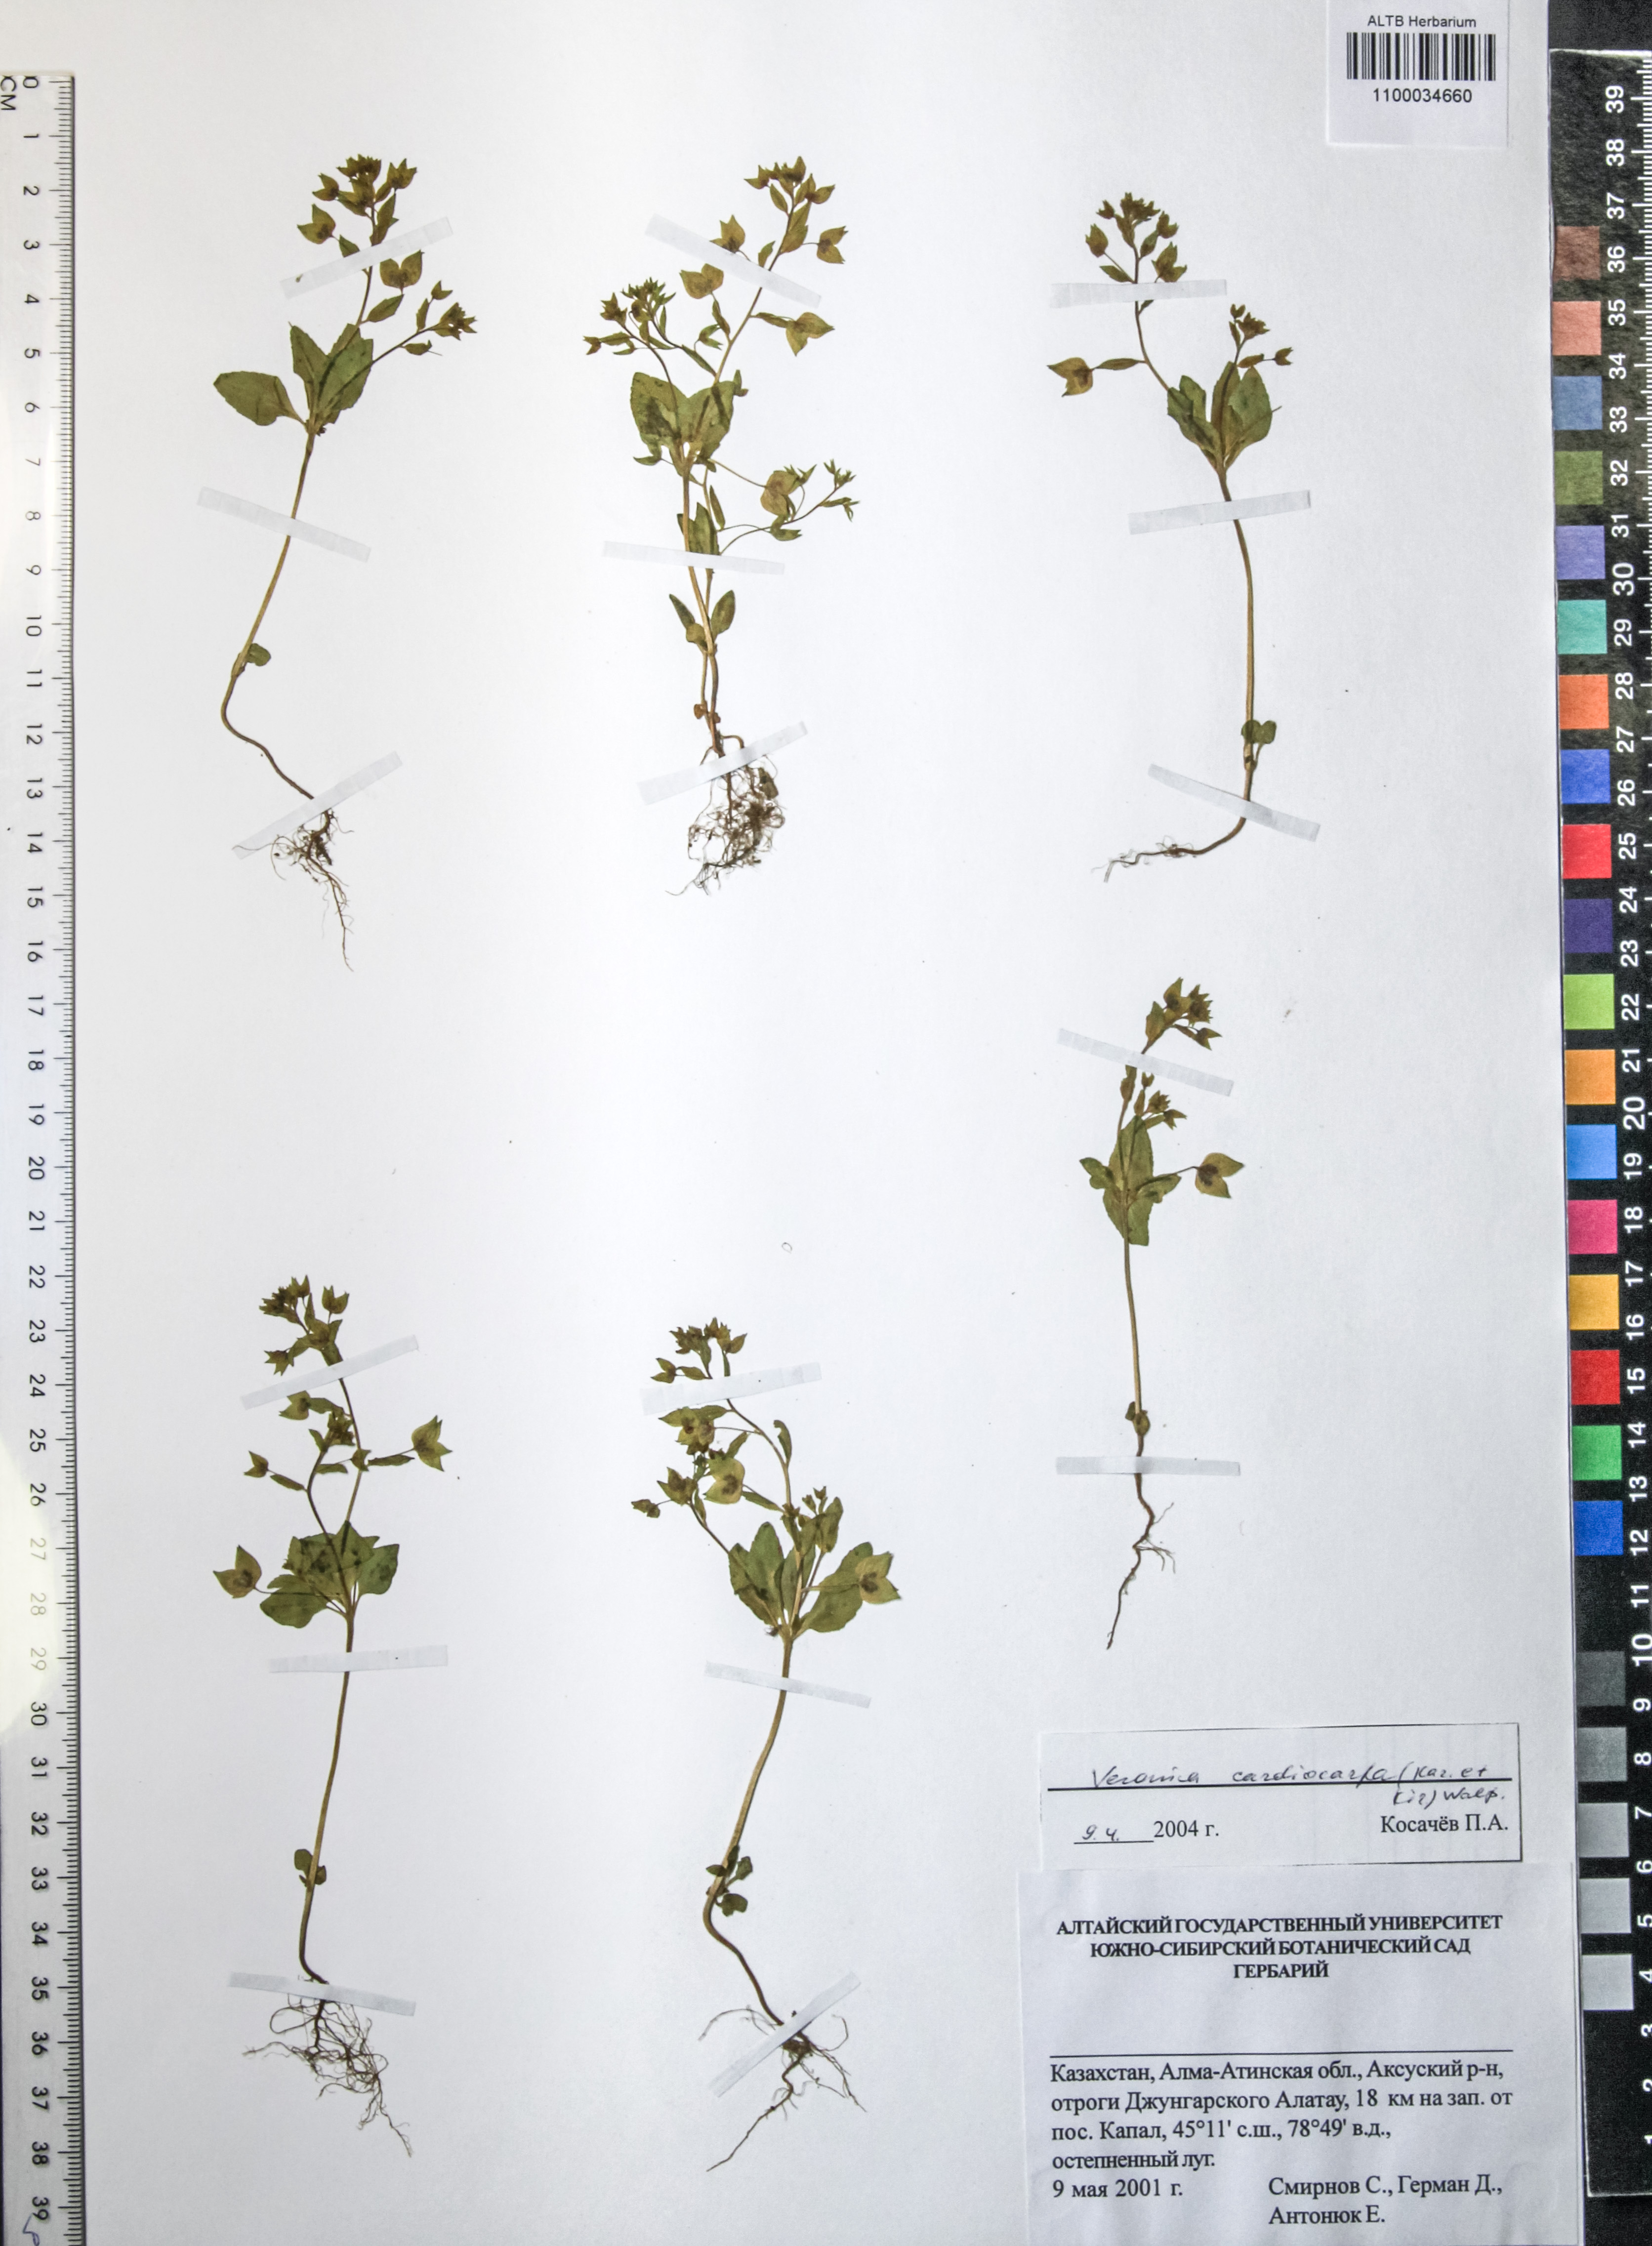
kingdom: Plantae
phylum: Tracheophyta
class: Magnoliopsida
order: Lamiales
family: Plantaginaceae
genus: Veronica
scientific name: Veronica cardiocarpa
